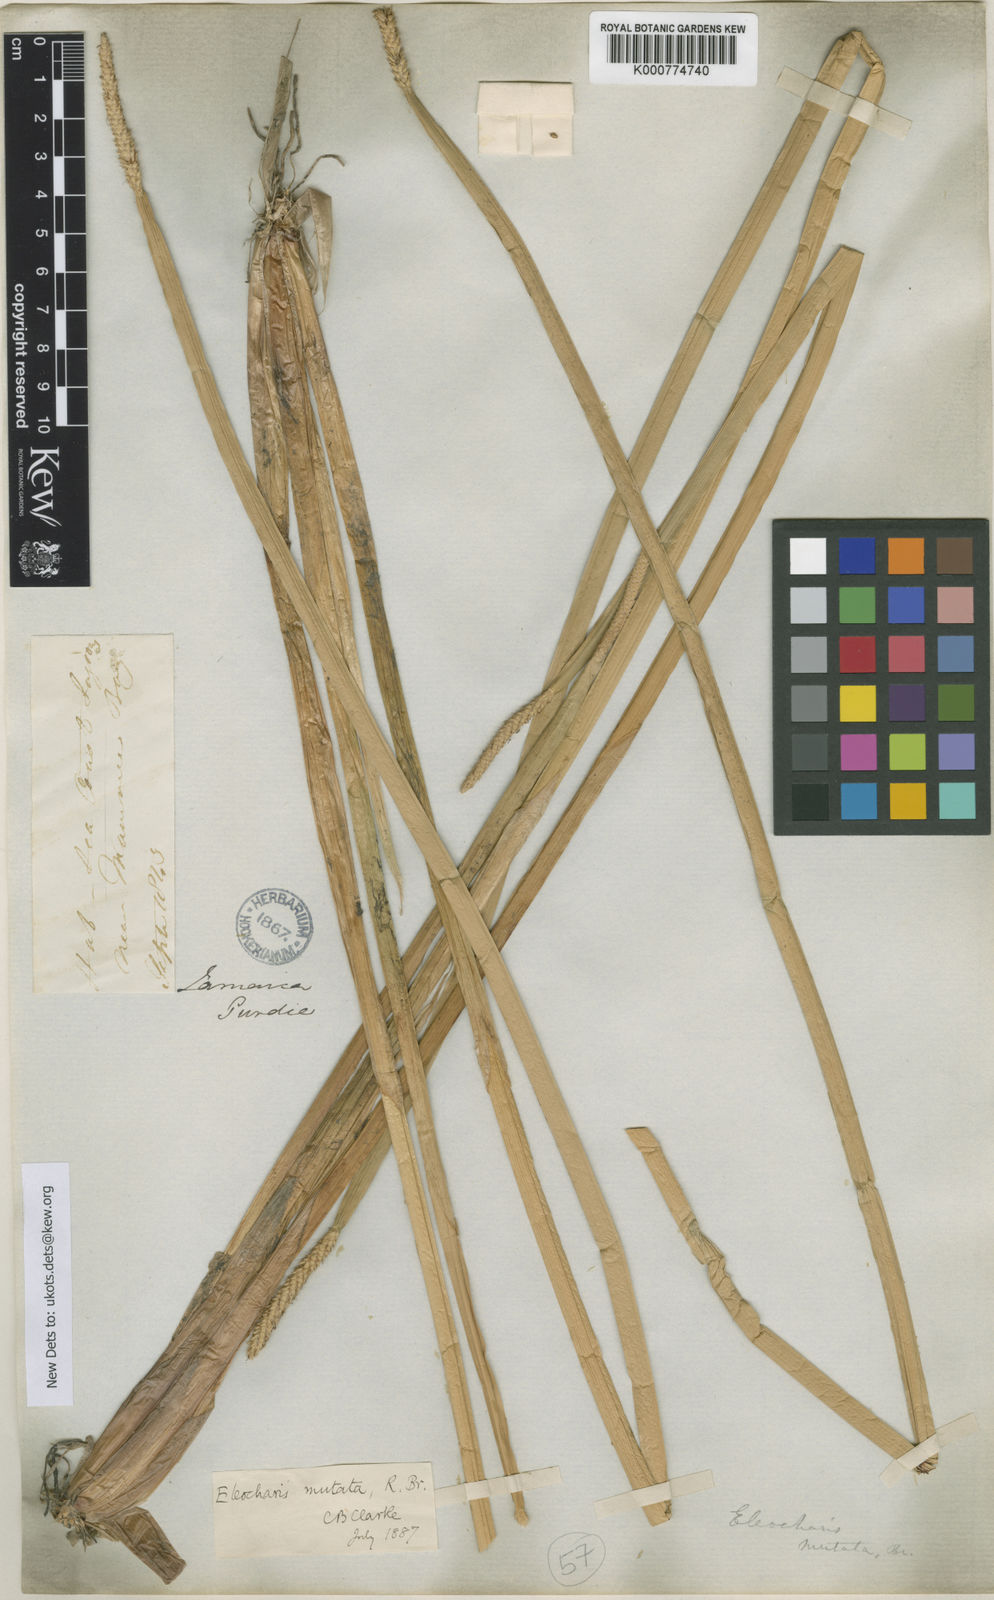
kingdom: Plantae
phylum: Tracheophyta
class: Liliopsida
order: Poales
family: Cyperaceae
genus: Eleocharis
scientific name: Eleocharis mutata
